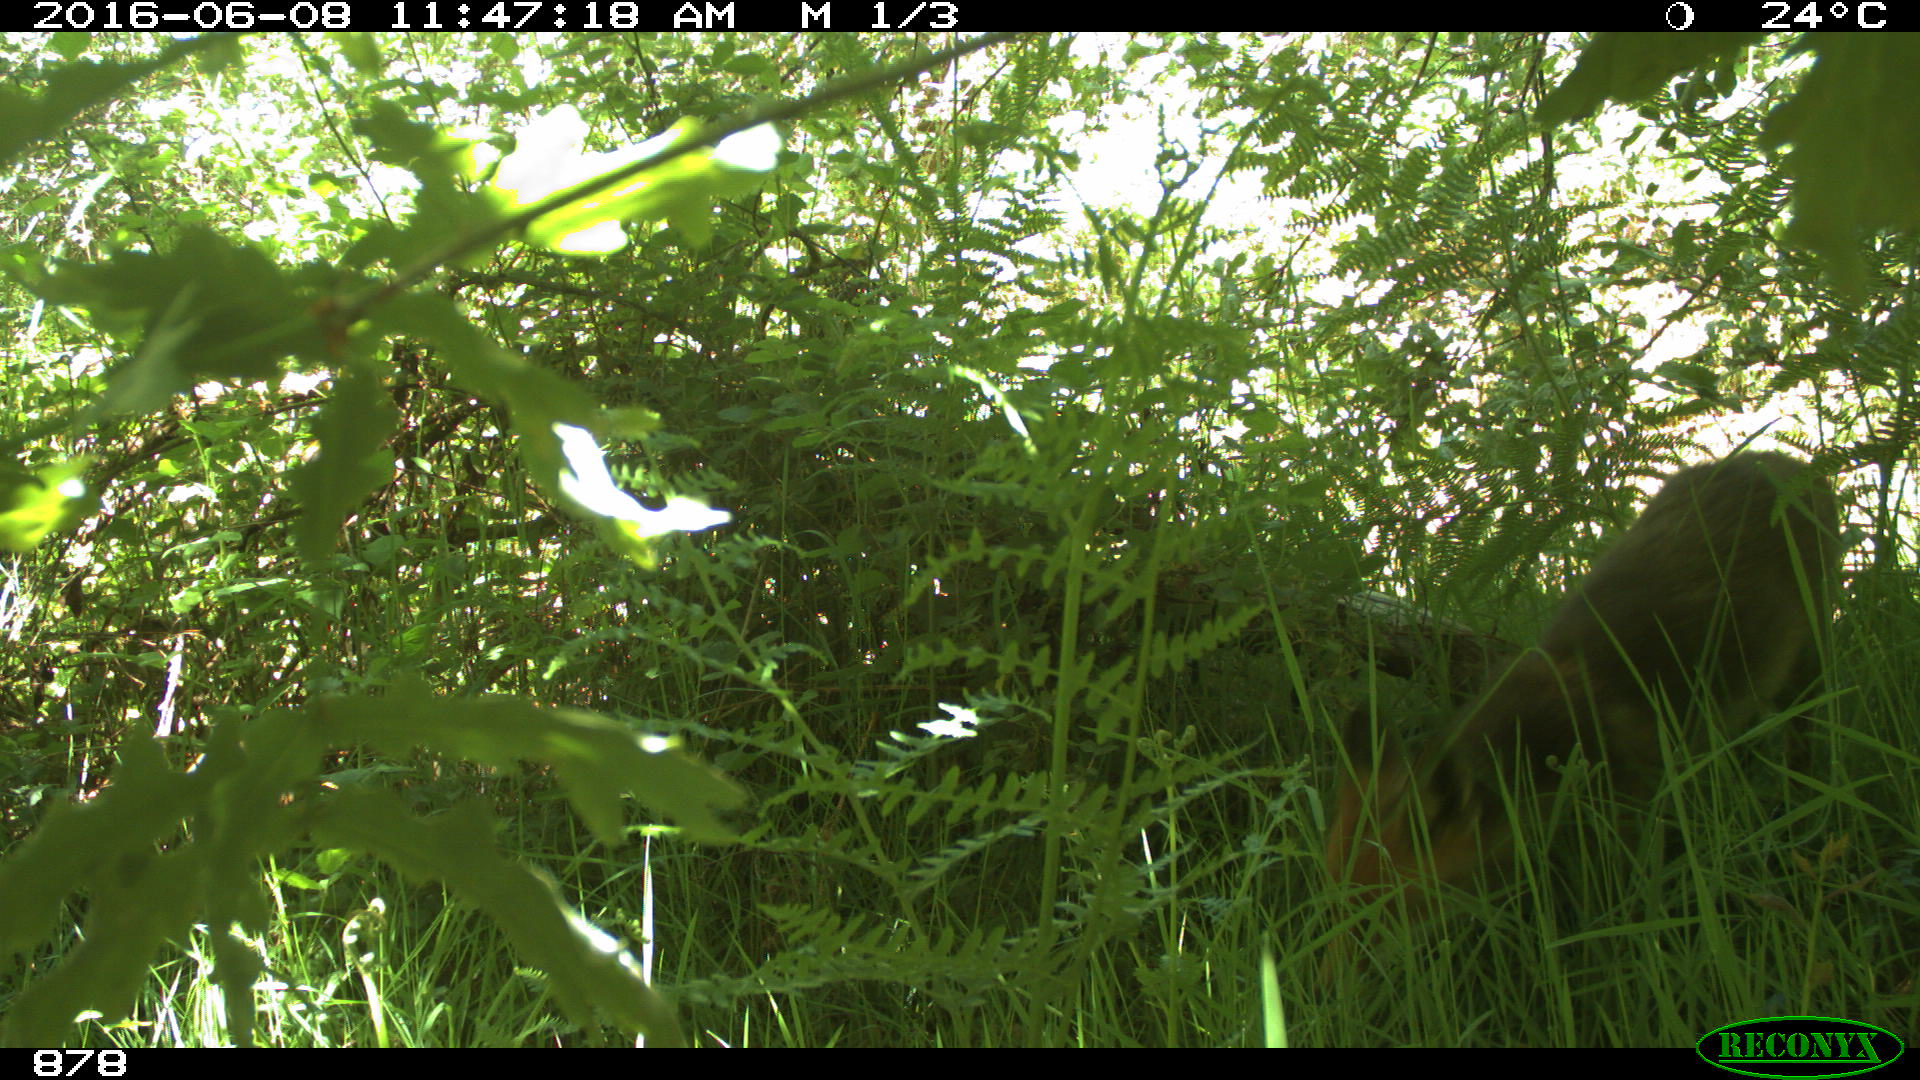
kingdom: Animalia
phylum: Chordata
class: Mammalia
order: Carnivora
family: Canidae
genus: Vulpes
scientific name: Vulpes vulpes
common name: Red fox
